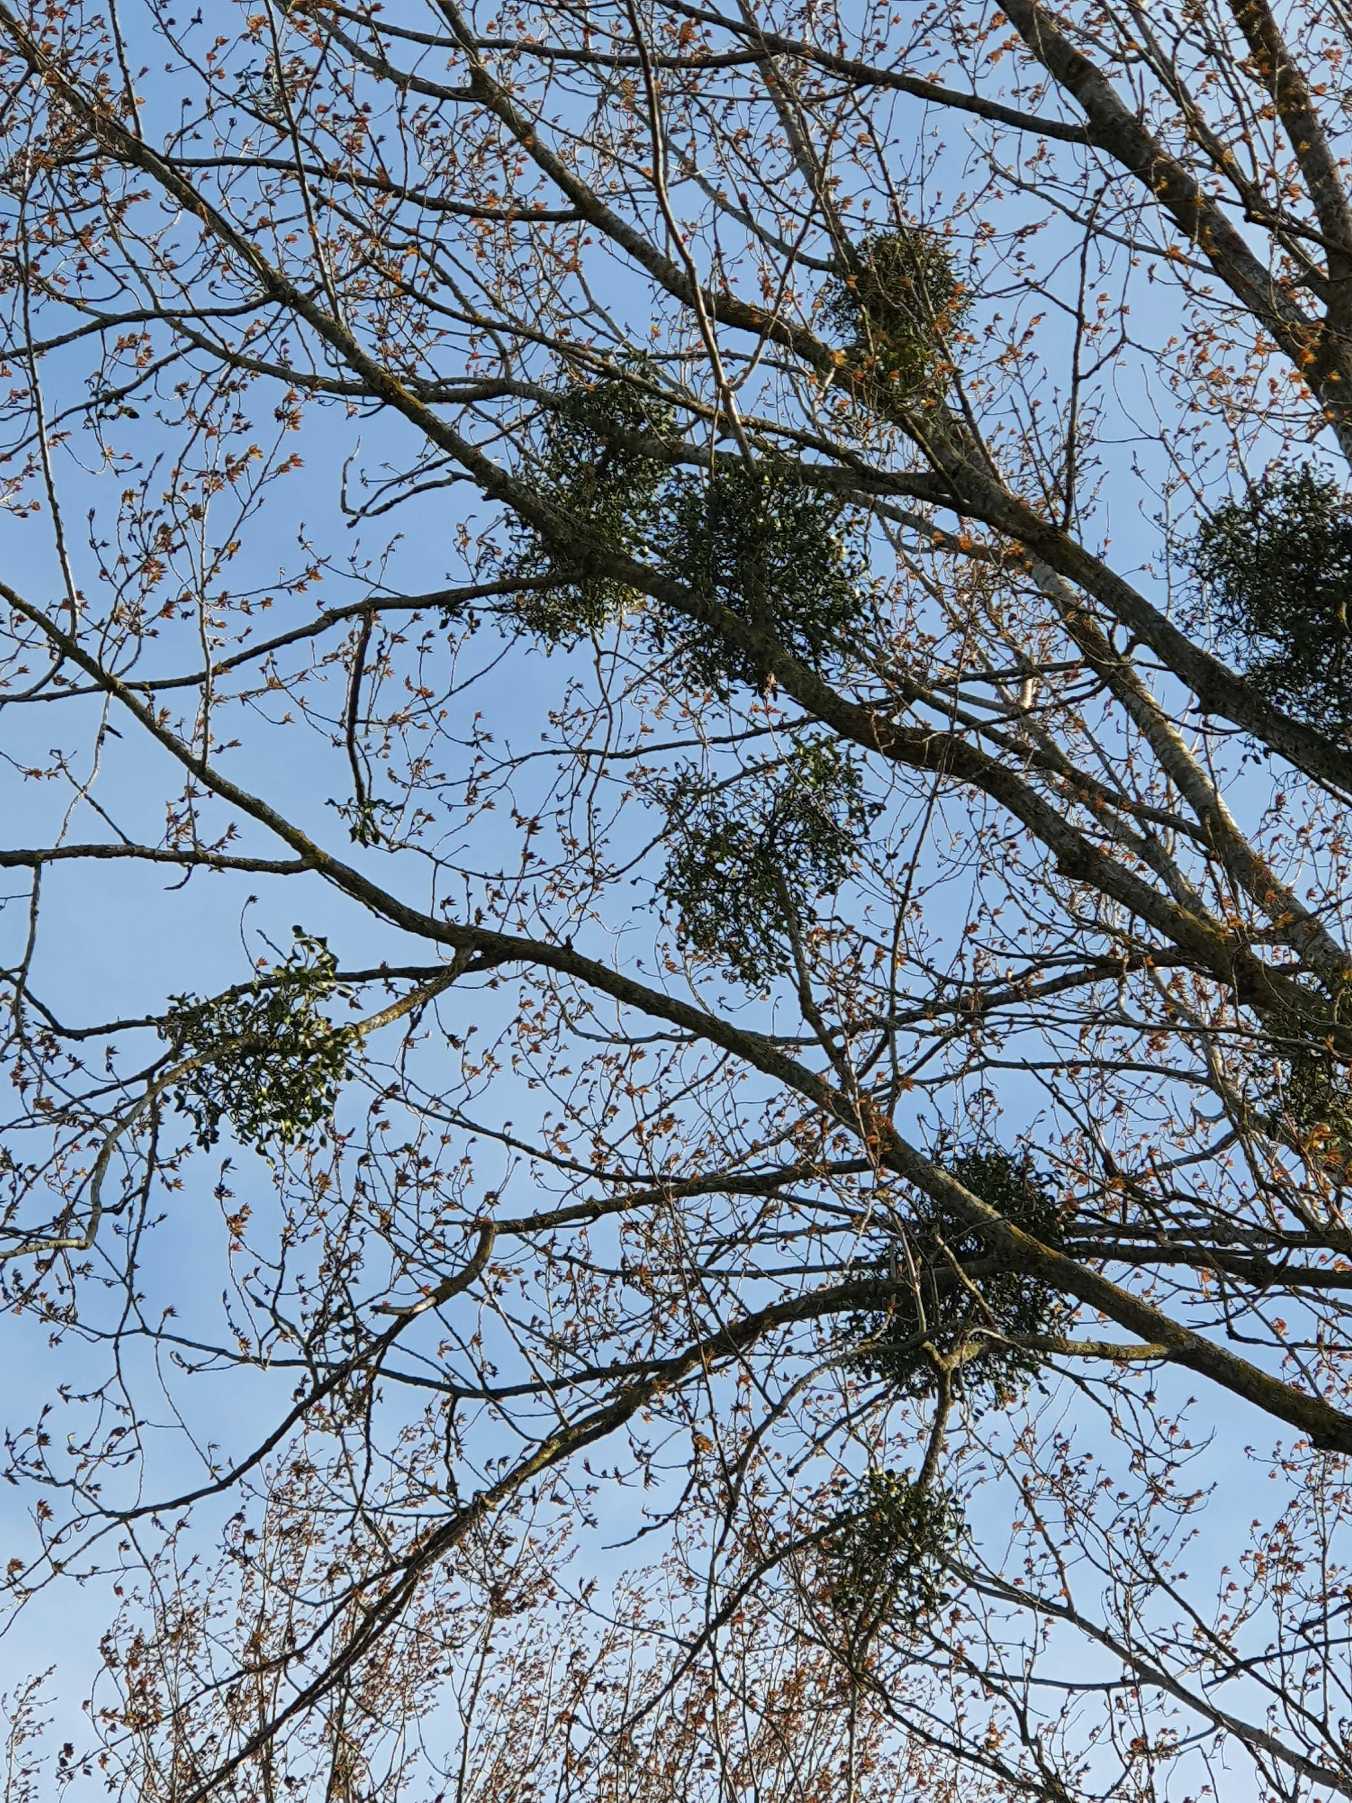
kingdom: Plantae
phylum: Tracheophyta
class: Magnoliopsida
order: Santalales
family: Viscaceae
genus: Viscum
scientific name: Viscum album
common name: Mistelten
